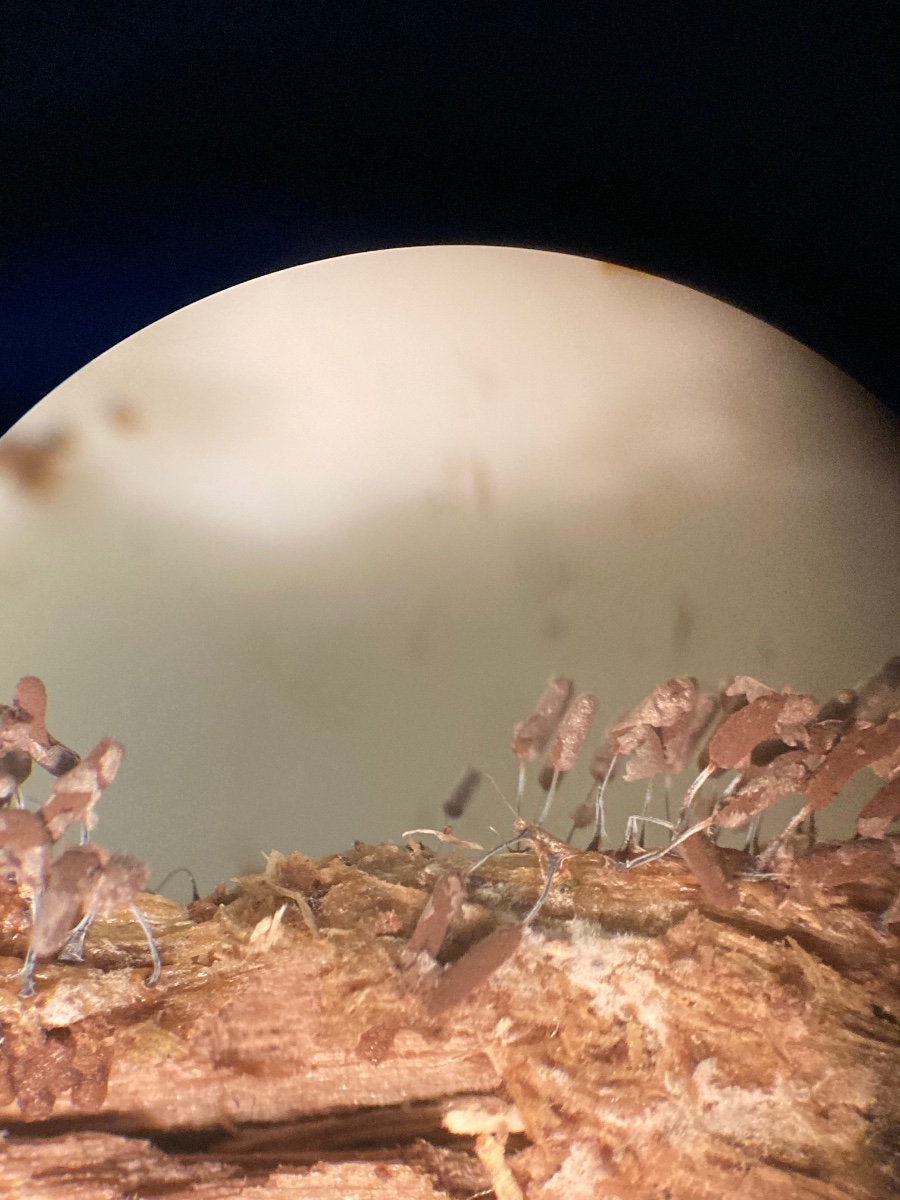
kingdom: Protozoa
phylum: Mycetozoa
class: Myxomycetes
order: Stemonitidales
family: Stemonitidaceae
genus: Stemonitopsis
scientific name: Stemonitopsis typhina
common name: skinnende støvkølle
